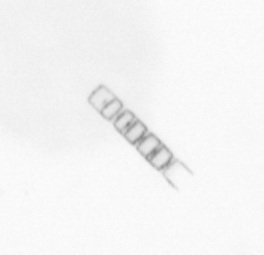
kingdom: Chromista
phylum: Ochrophyta
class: Bacillariophyceae
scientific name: Bacillariophyceae
